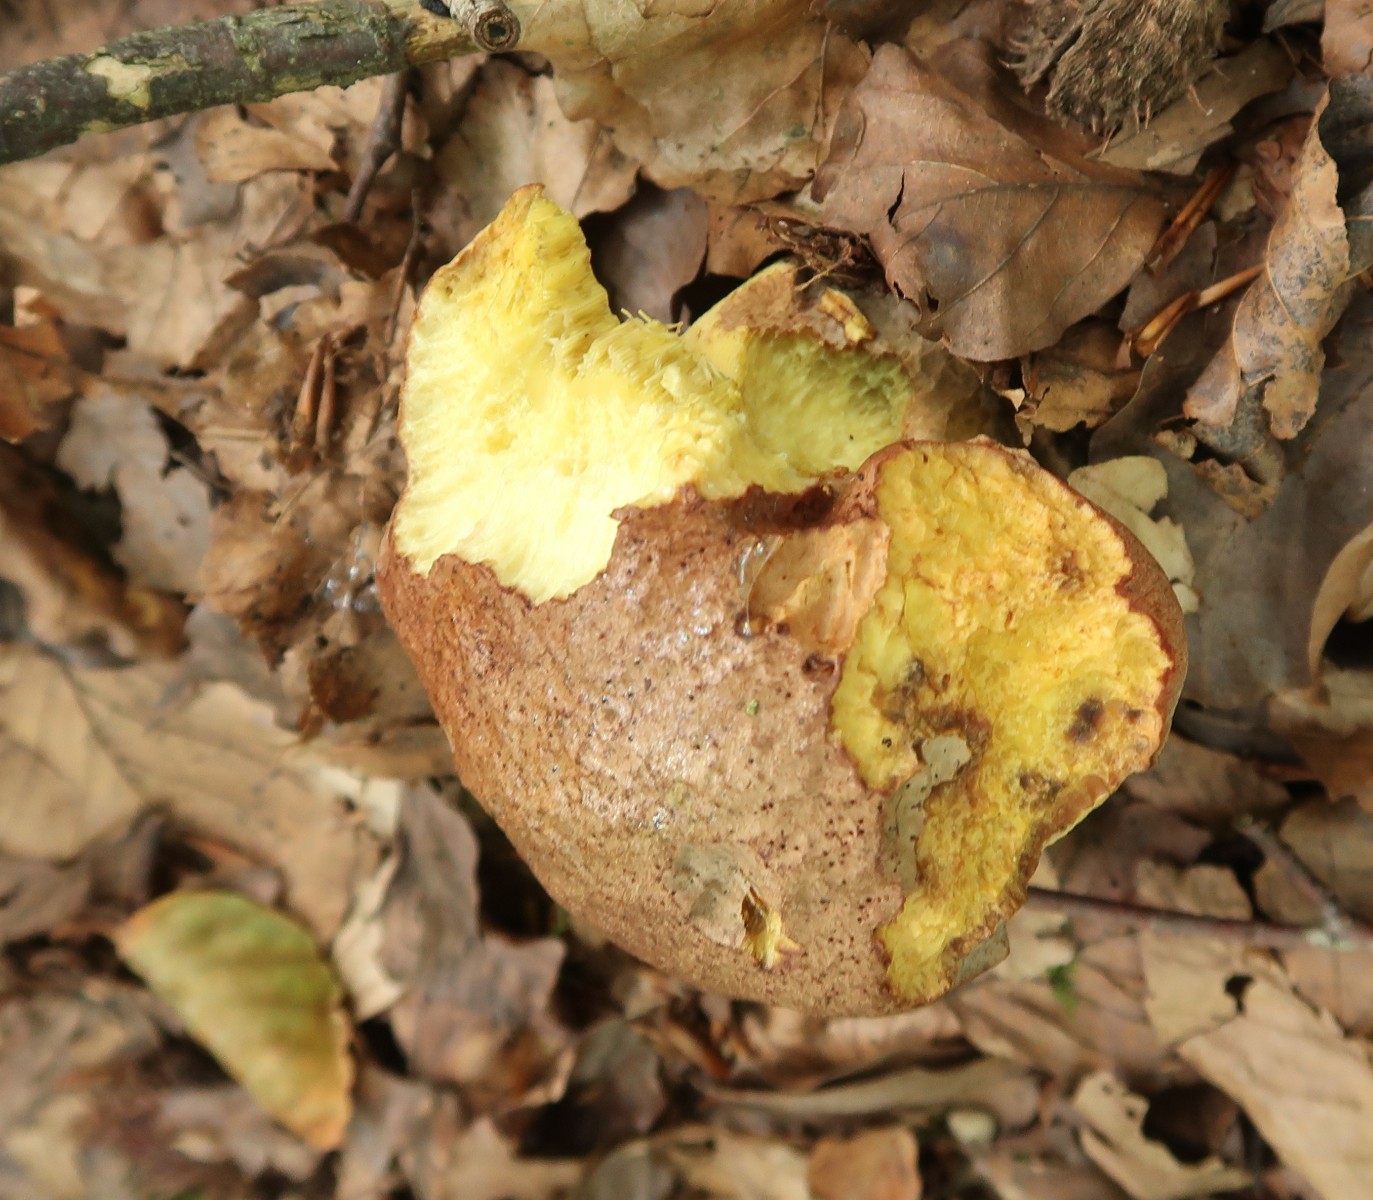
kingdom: Fungi
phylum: Basidiomycota
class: Agaricomycetes
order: Boletales
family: Boletaceae
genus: Aureoboletus
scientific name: Aureoboletus gentilis
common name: guldrørhat
